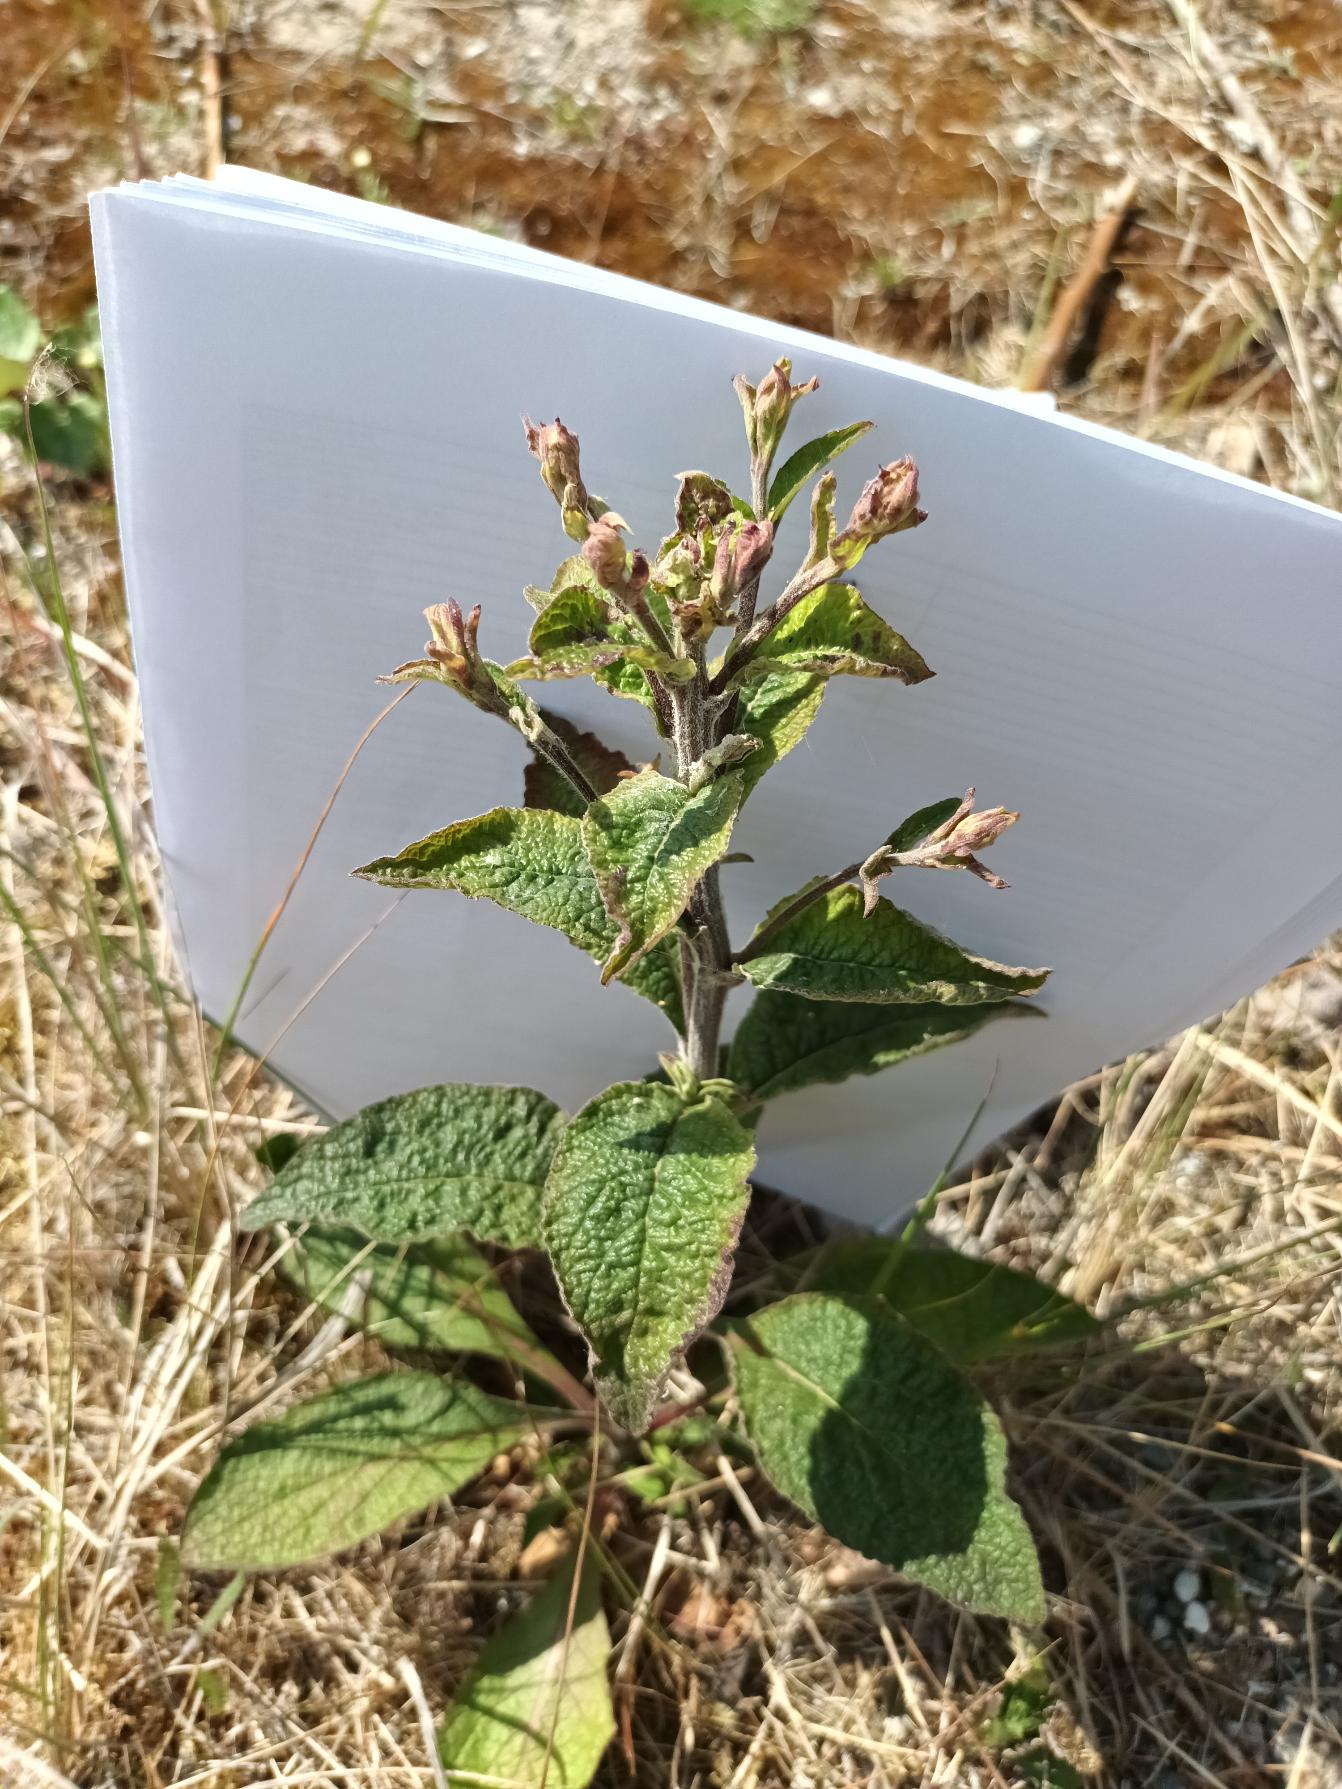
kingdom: Plantae
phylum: Tracheophyta
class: Magnoliopsida
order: Asterales
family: Asteraceae
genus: Pentanema
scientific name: Pentanema squarrosum
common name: Trekløft-alant
